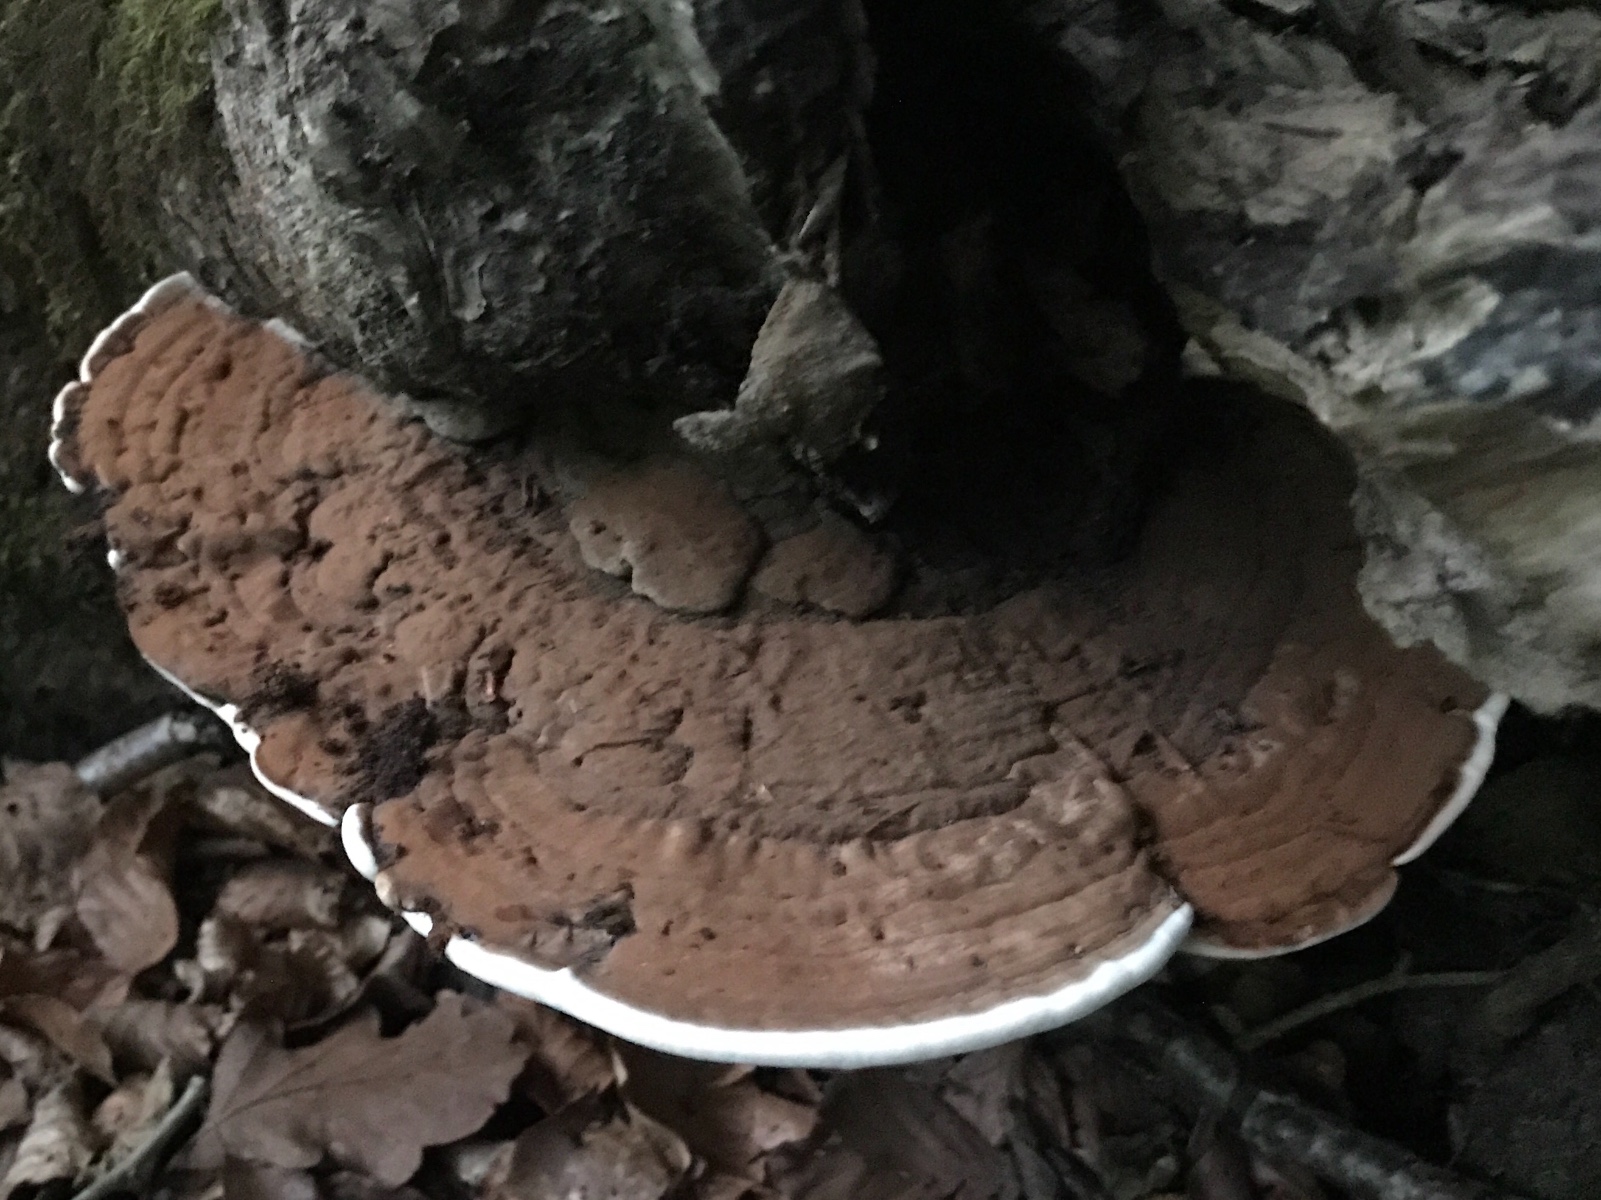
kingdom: Fungi
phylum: Basidiomycota
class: Agaricomycetes
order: Polyporales
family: Polyporaceae
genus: Ganoderma
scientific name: Ganoderma applanatum
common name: flad lakporesvamp
